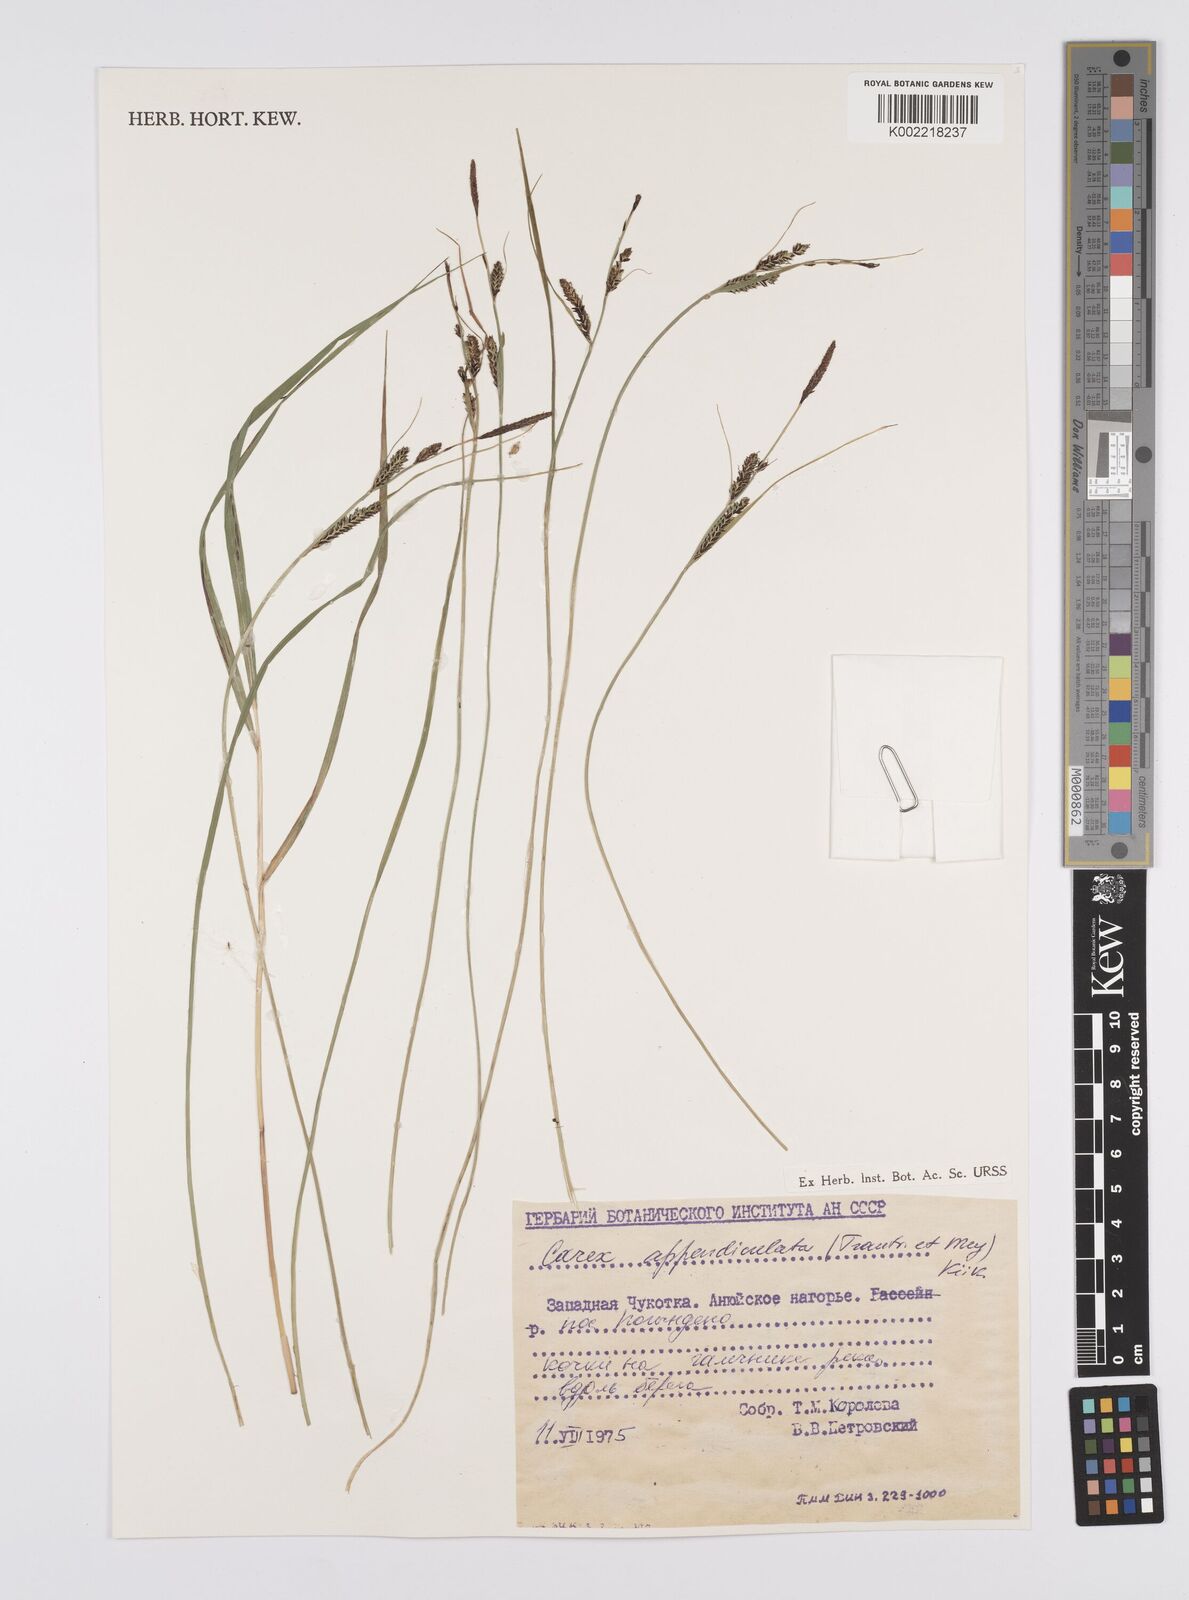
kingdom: Plantae
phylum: Tracheophyta
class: Liliopsida
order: Poales
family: Cyperaceae
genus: Carex
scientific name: Carex appendiculata
